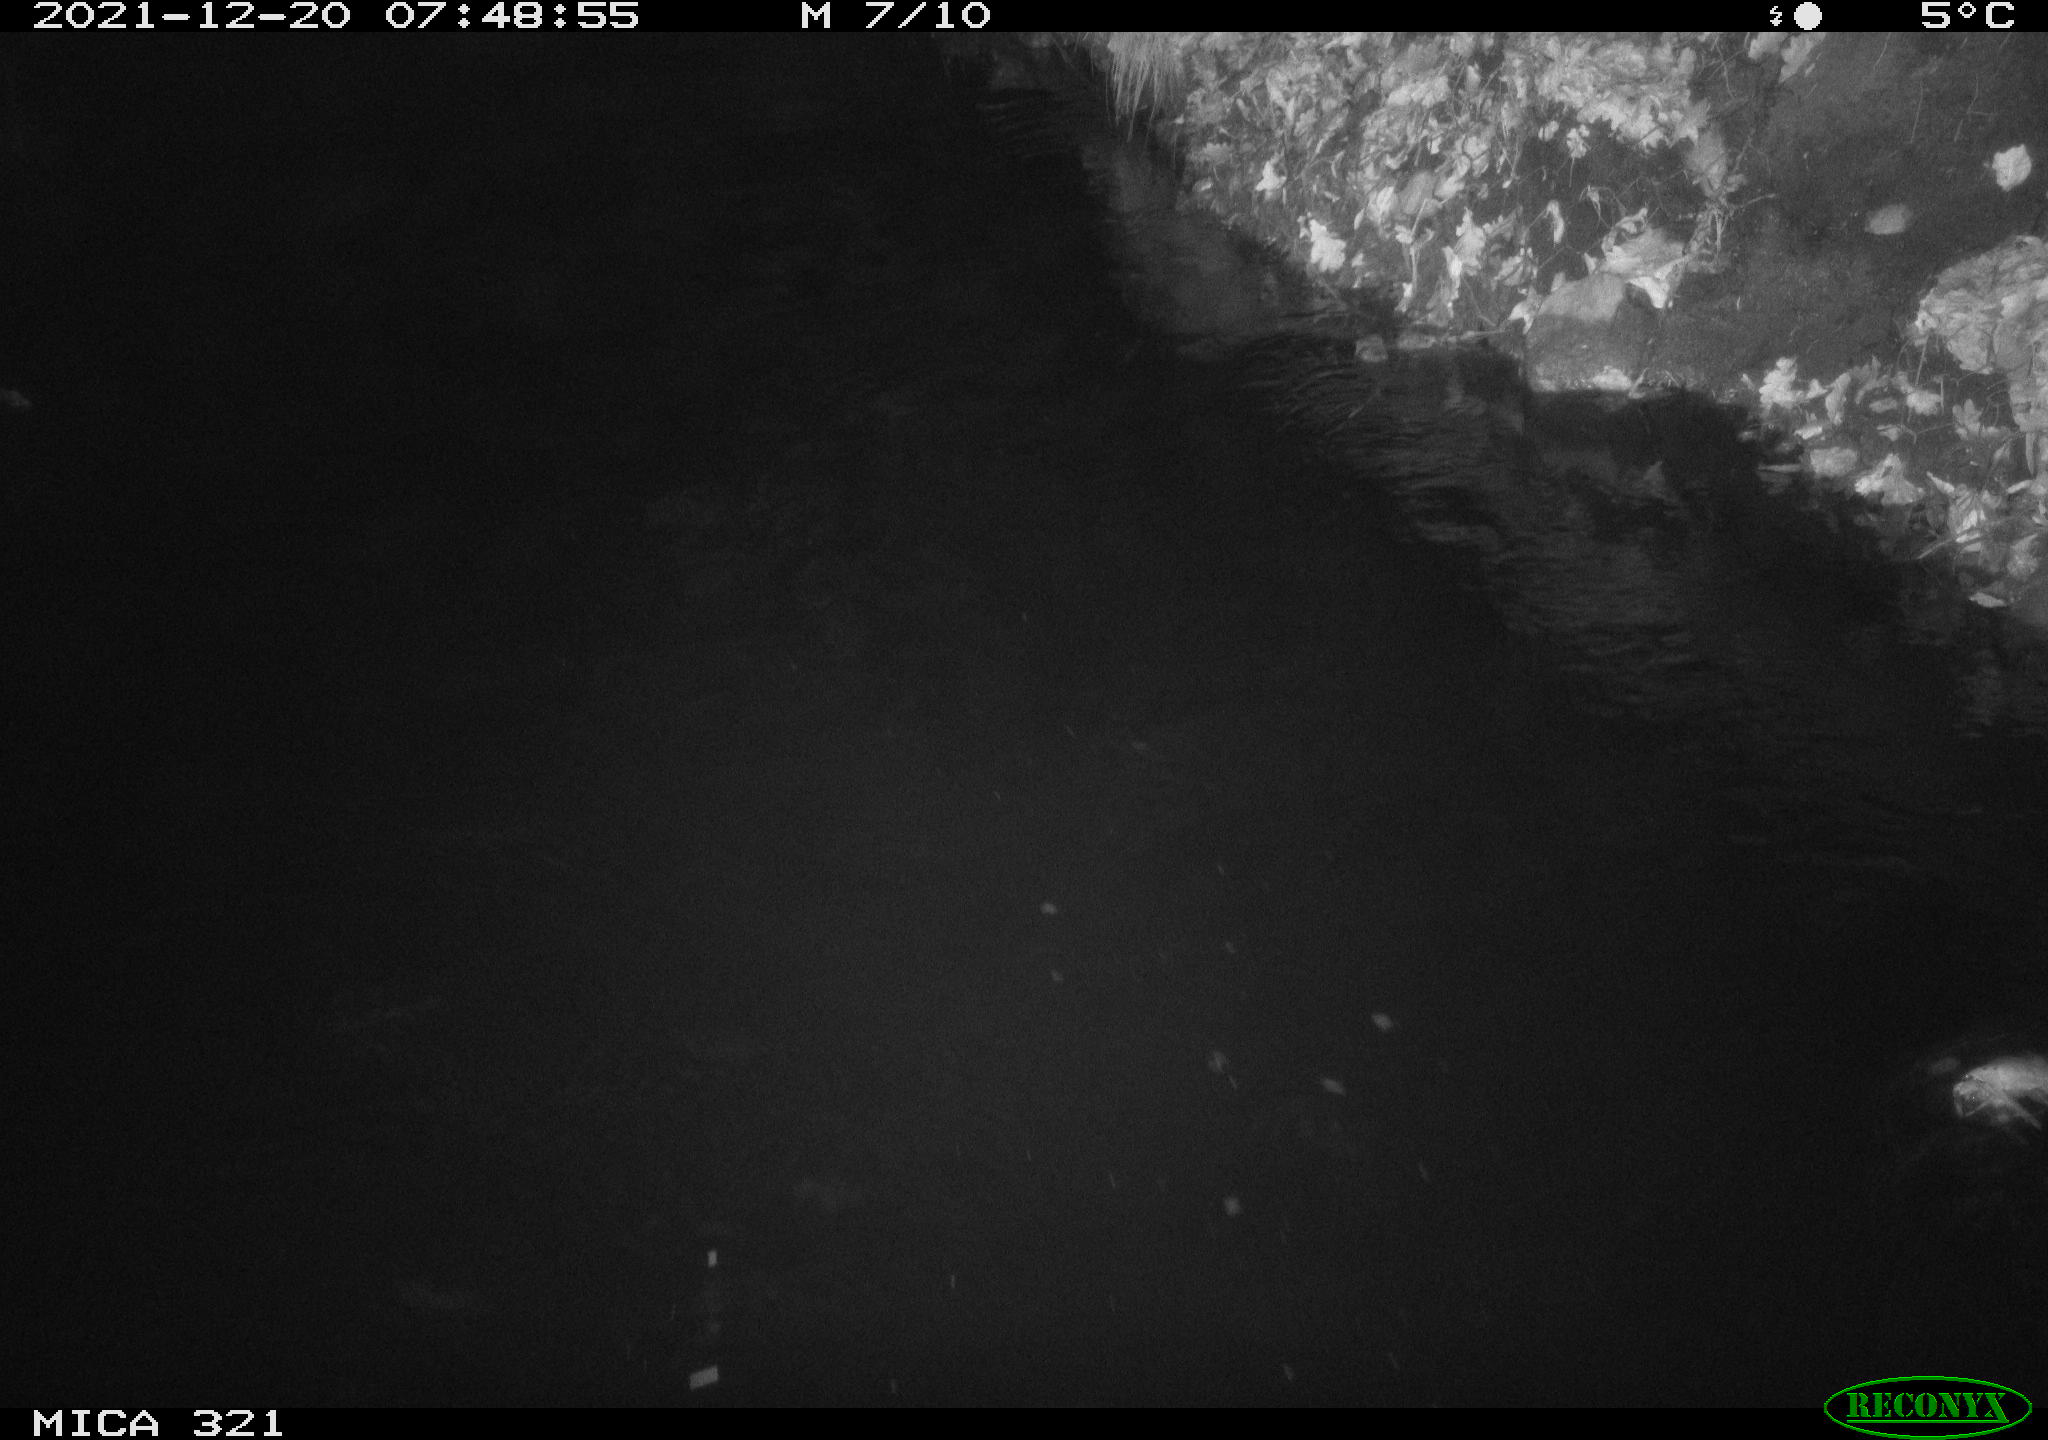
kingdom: Animalia
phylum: Chordata
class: Aves
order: Anseriformes
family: Anatidae
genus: Anas
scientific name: Anas
